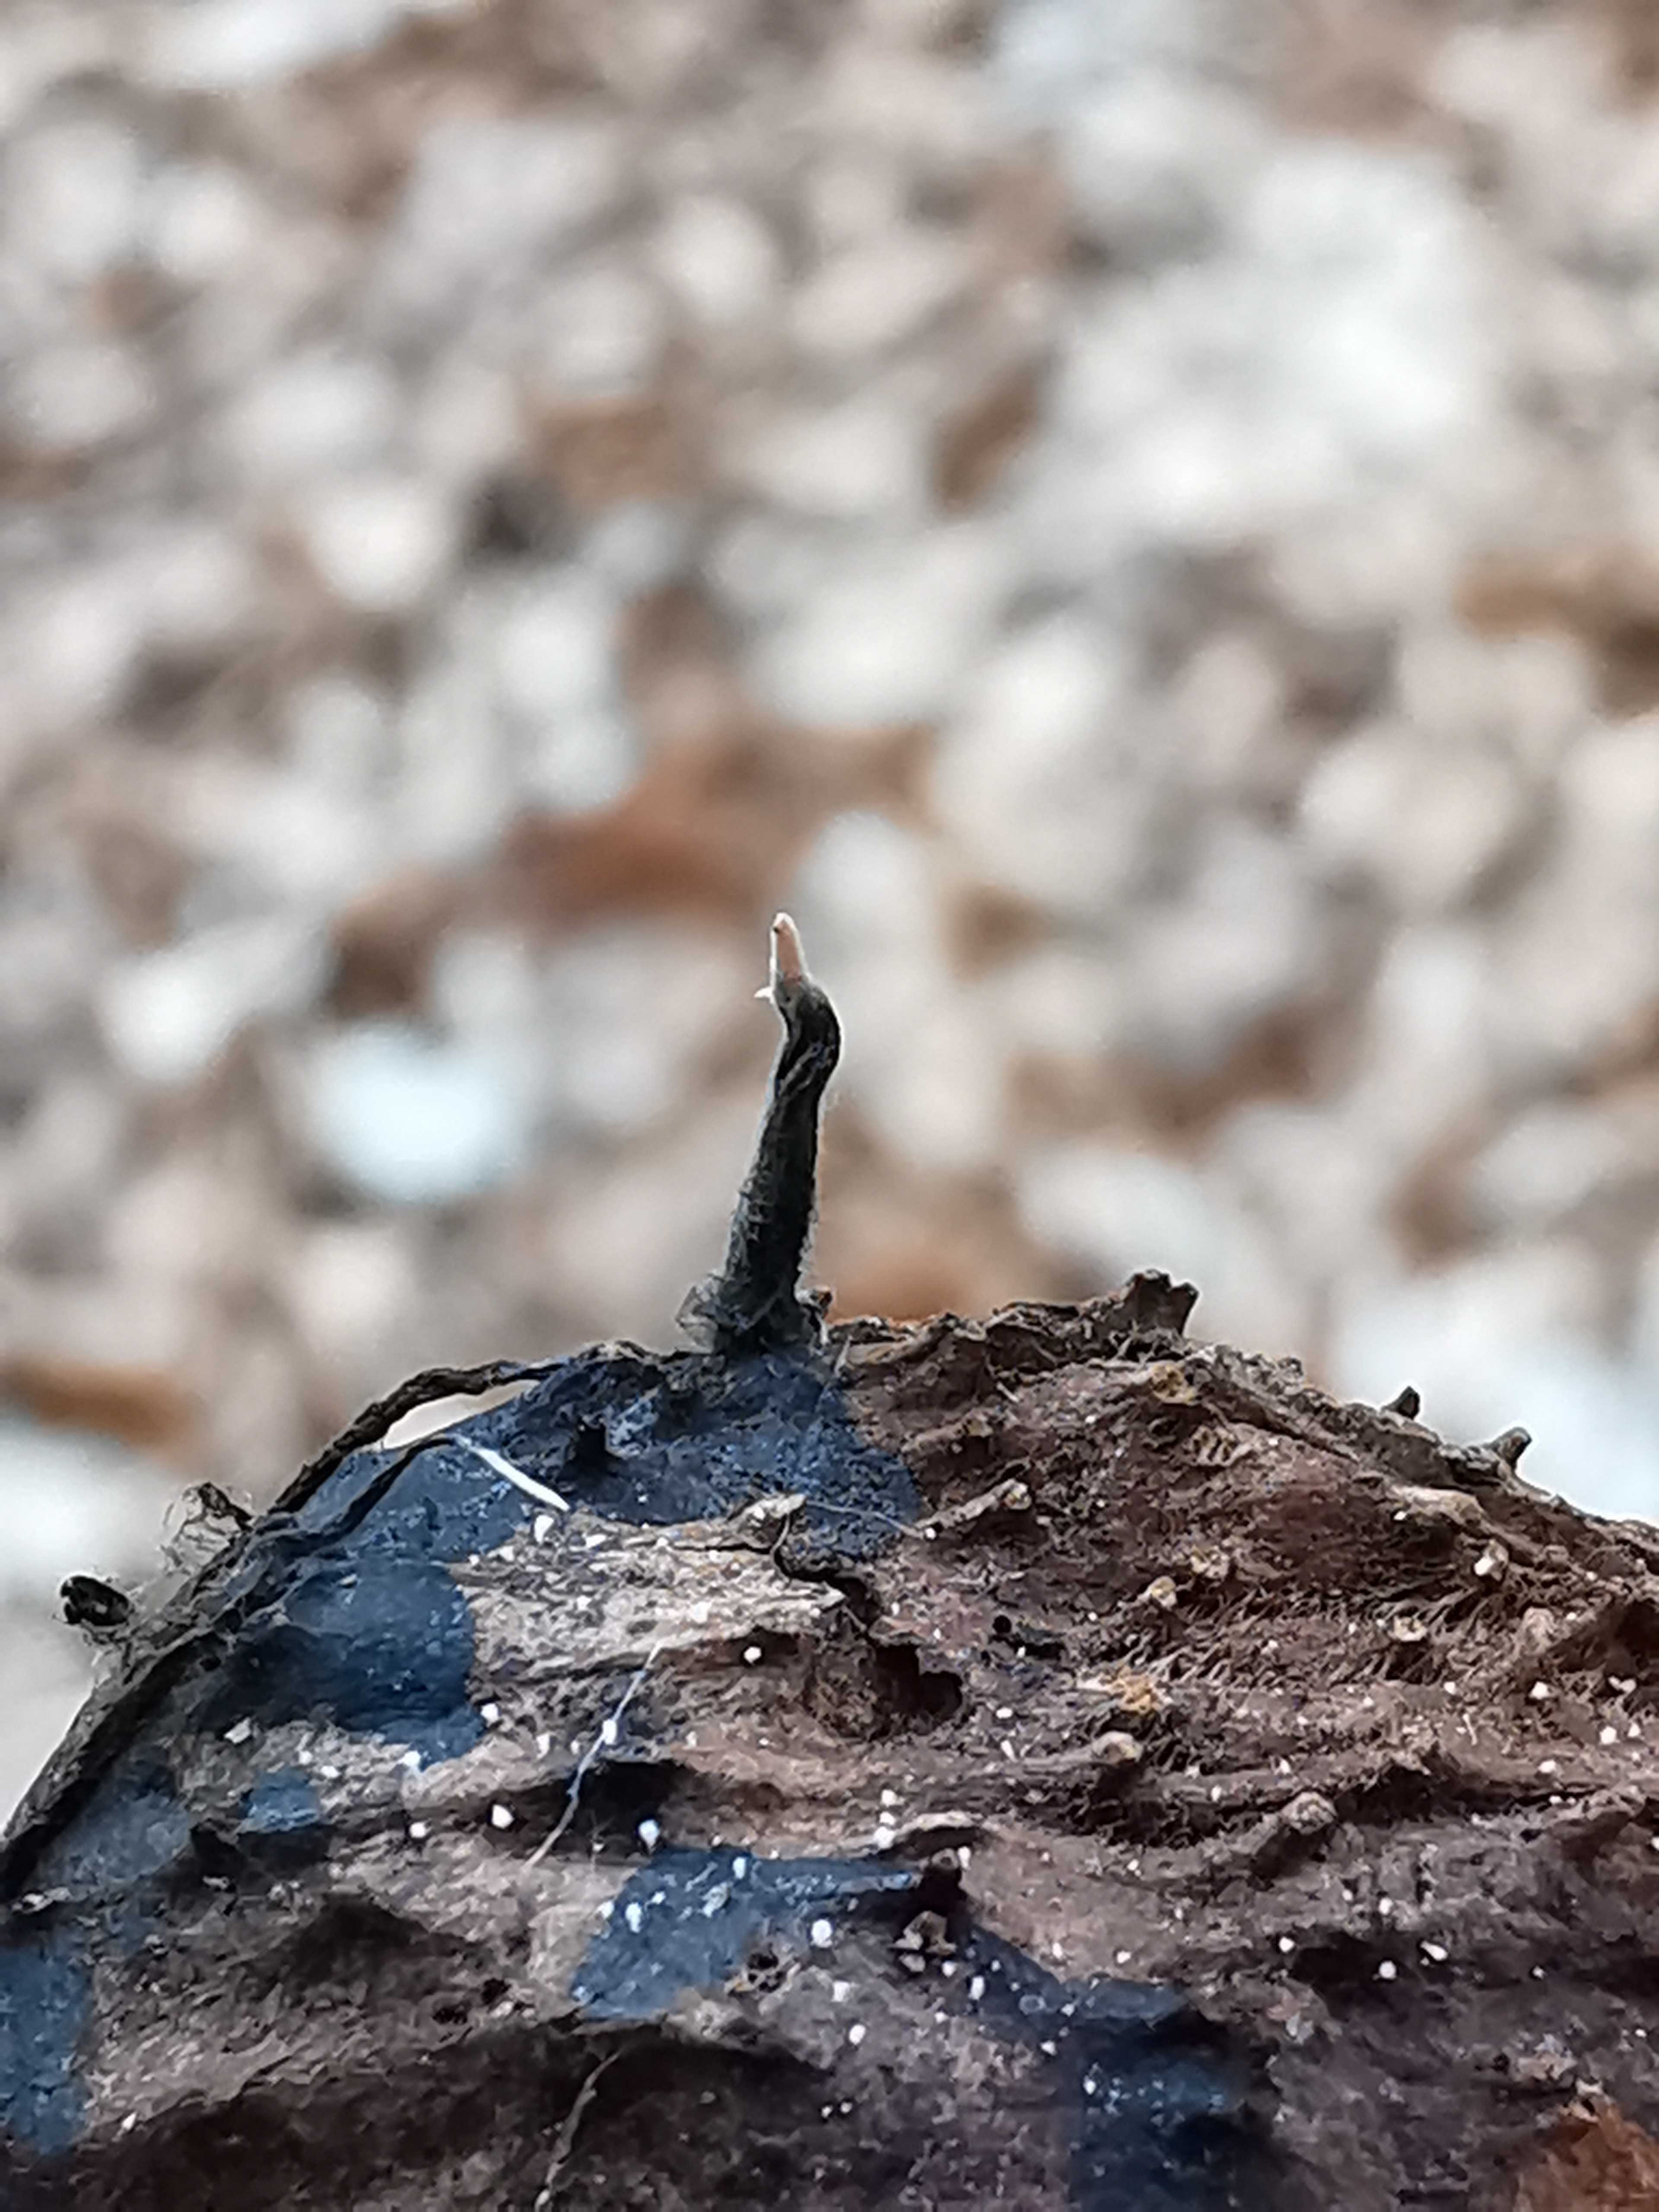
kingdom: Fungi
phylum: Ascomycota
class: Sordariomycetes
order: Xylariales
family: Xylariaceae
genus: Xylaria
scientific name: Xylaria carpophila
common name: bogskål-stødsvamp
